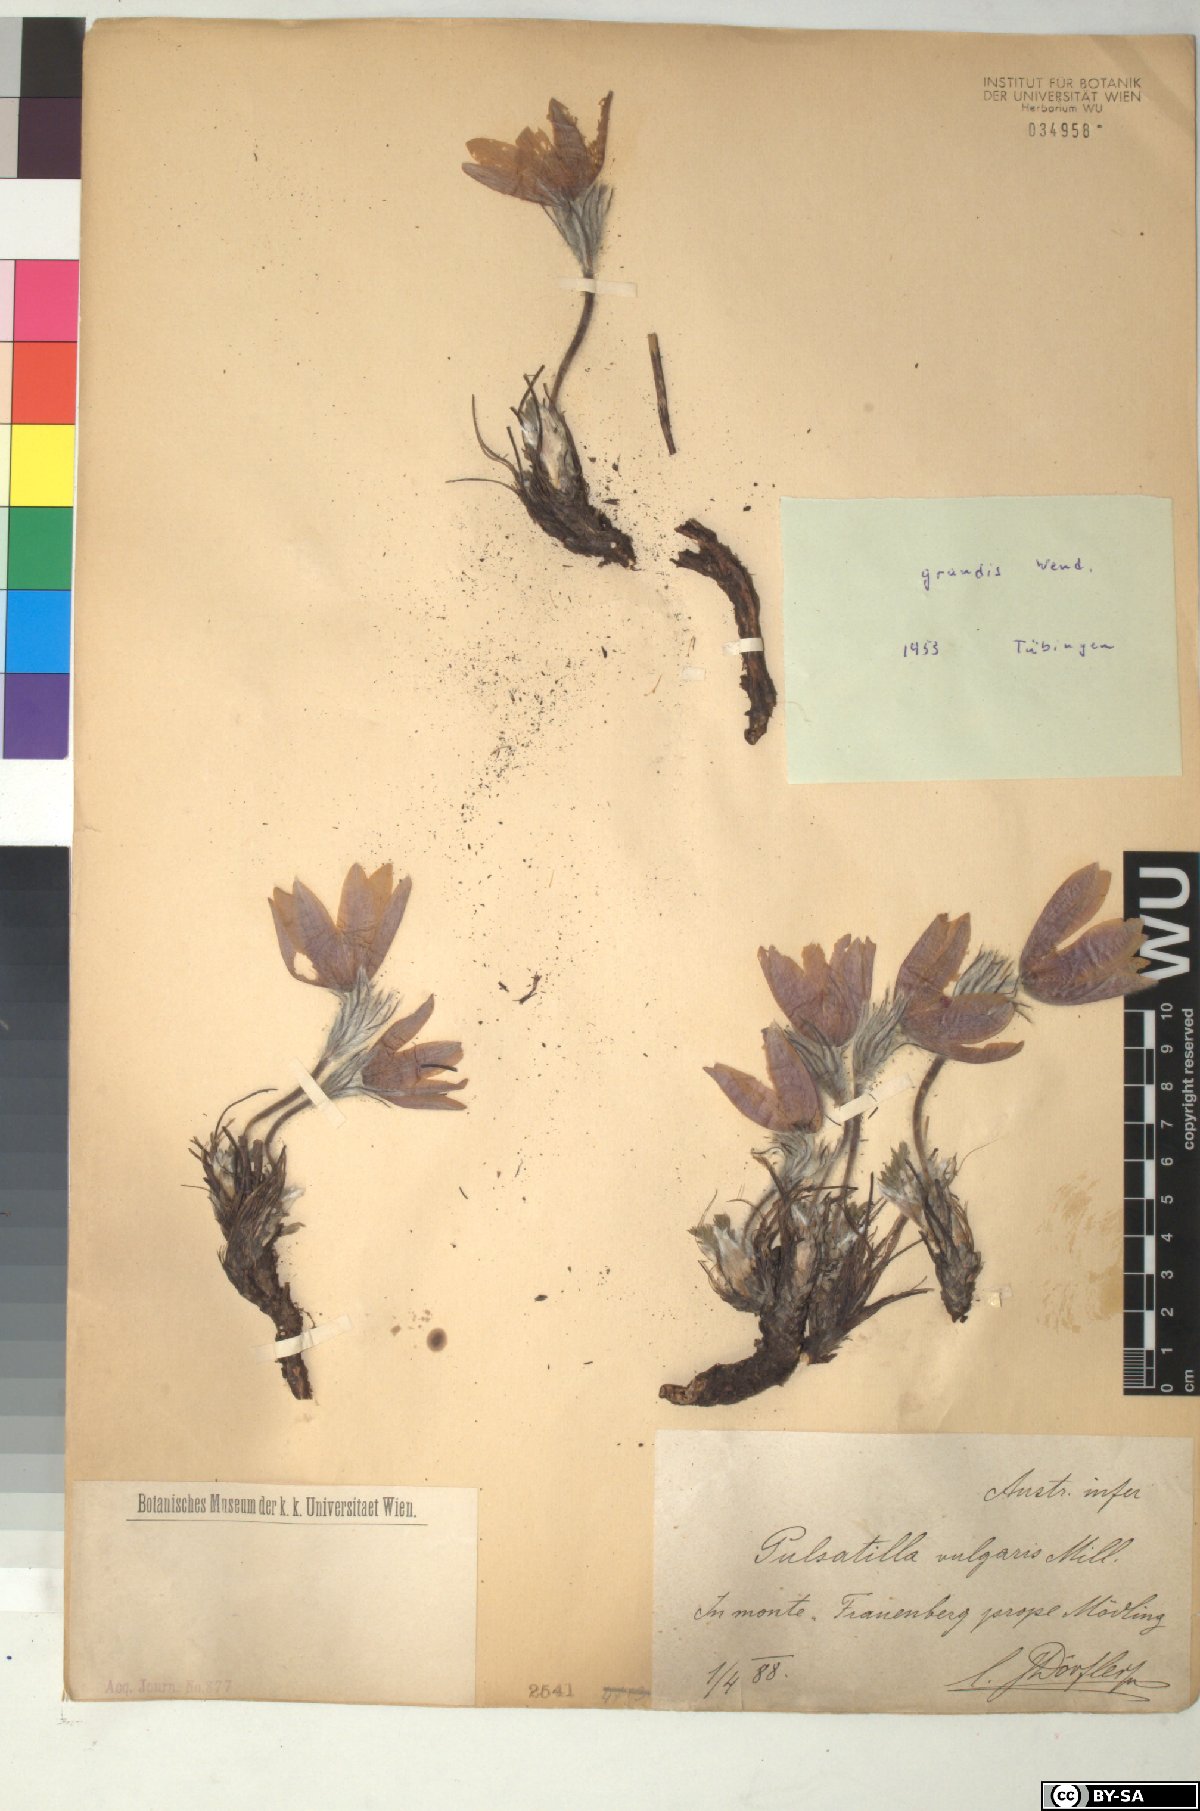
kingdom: Plantae
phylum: Tracheophyta
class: Magnoliopsida
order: Ranunculales
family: Ranunculaceae
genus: Pulsatilla
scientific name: Pulsatilla grandis
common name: Greater pasque flower
